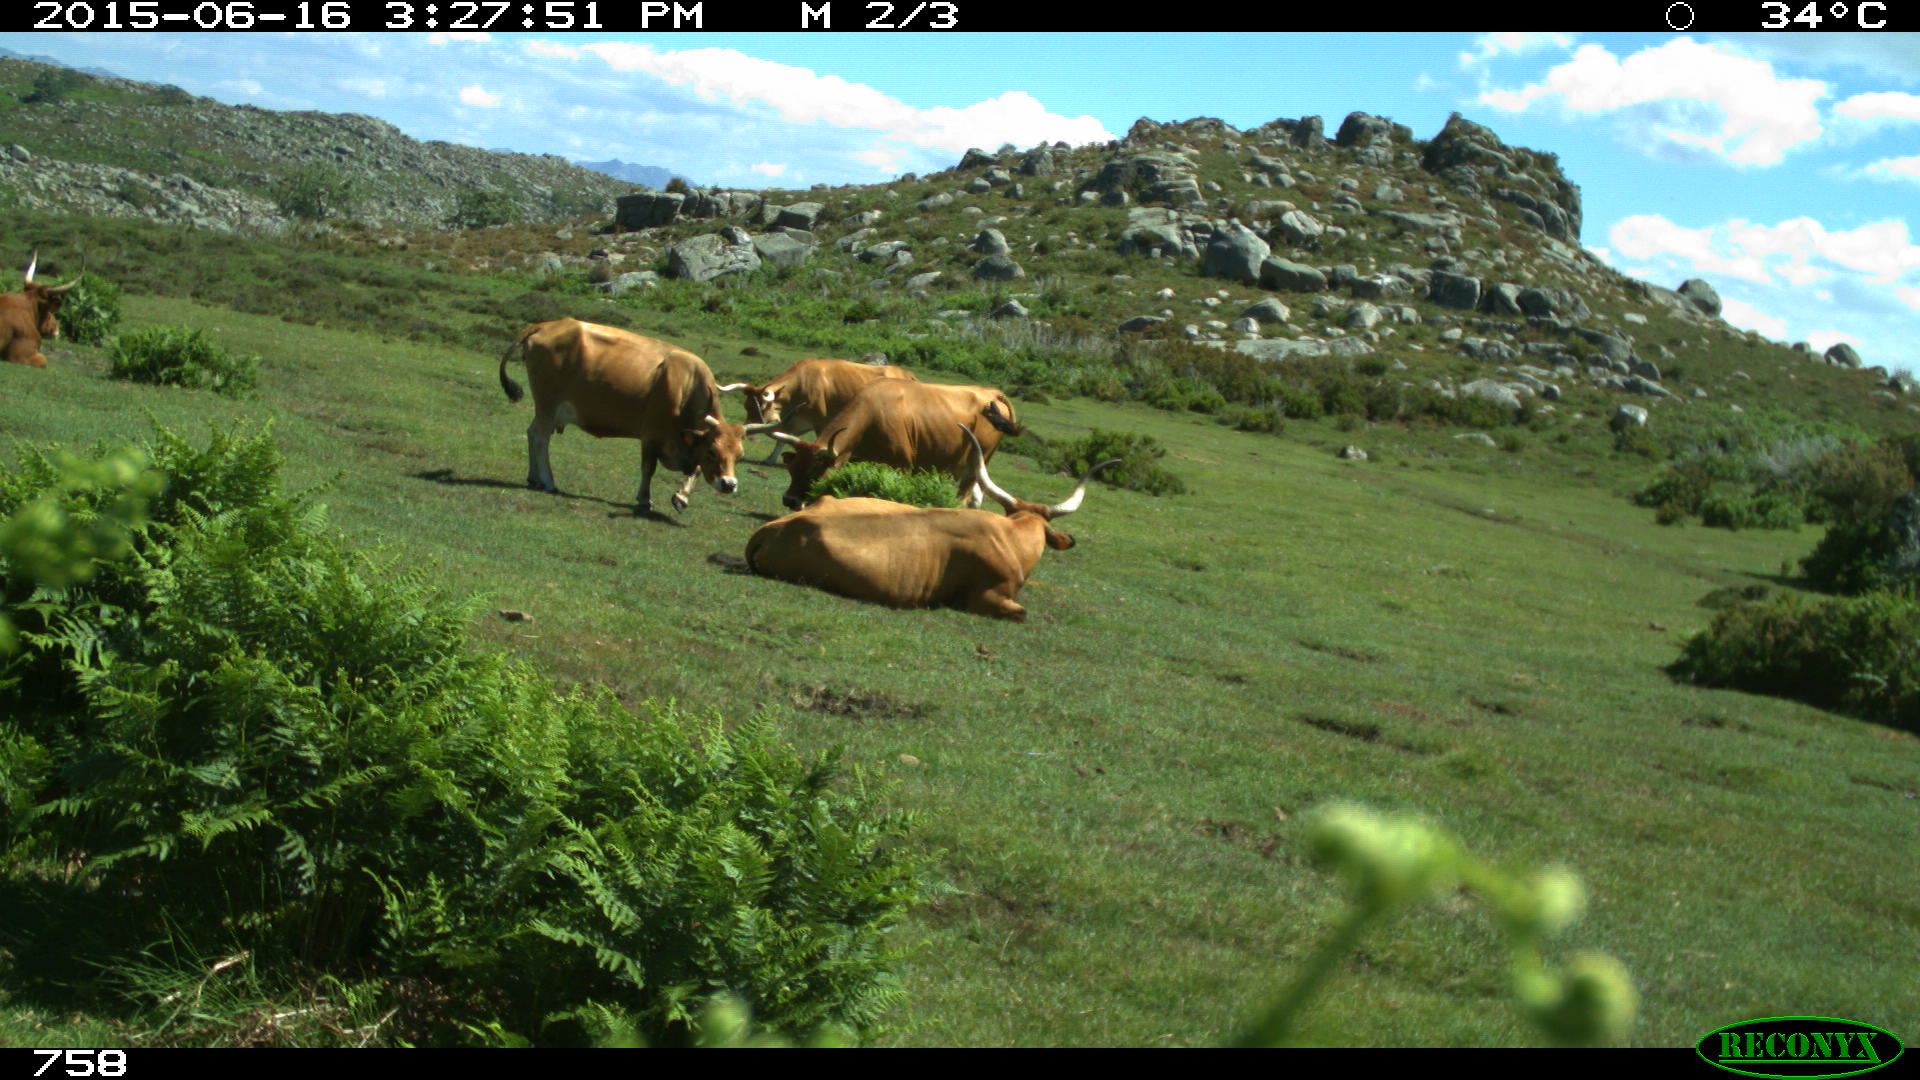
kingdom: Animalia
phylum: Chordata
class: Mammalia
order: Artiodactyla
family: Bovidae
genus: Bos
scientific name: Bos taurus
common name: Domesticated cattle
